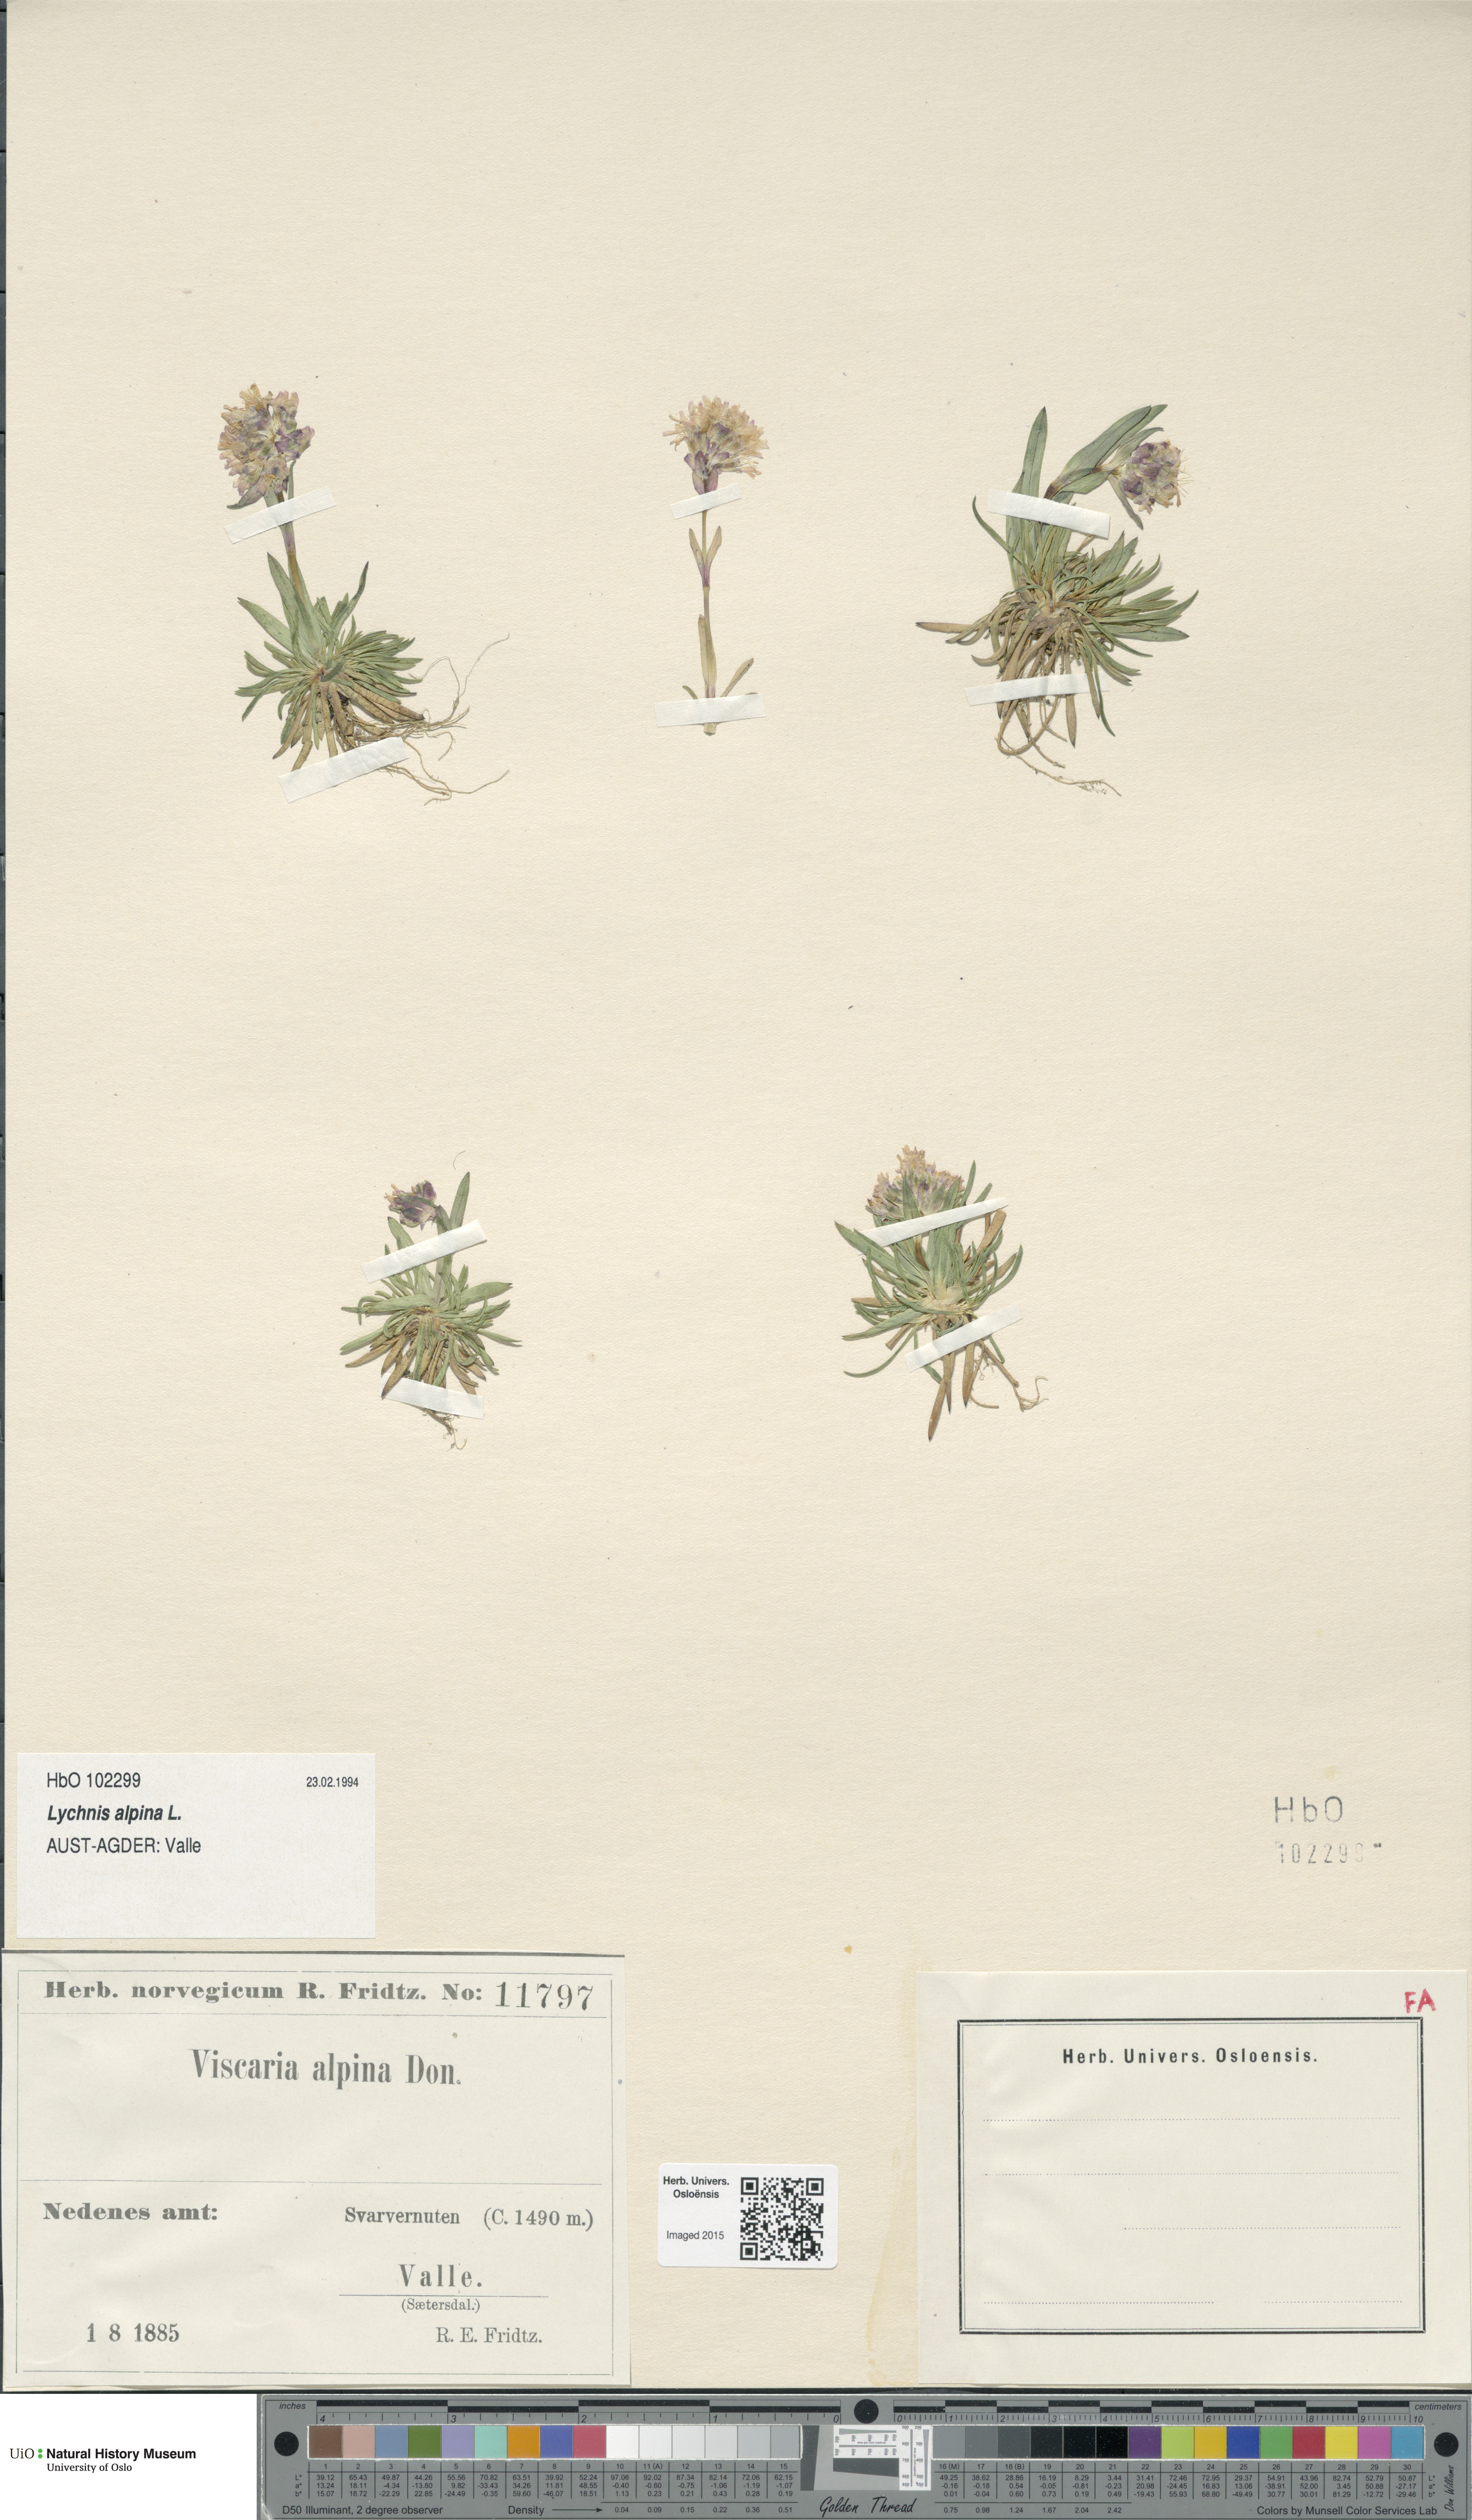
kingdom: Plantae
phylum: Tracheophyta
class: Magnoliopsida
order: Caryophyllales
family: Caryophyllaceae
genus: Viscaria
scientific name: Viscaria alpina
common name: Alpine campion
